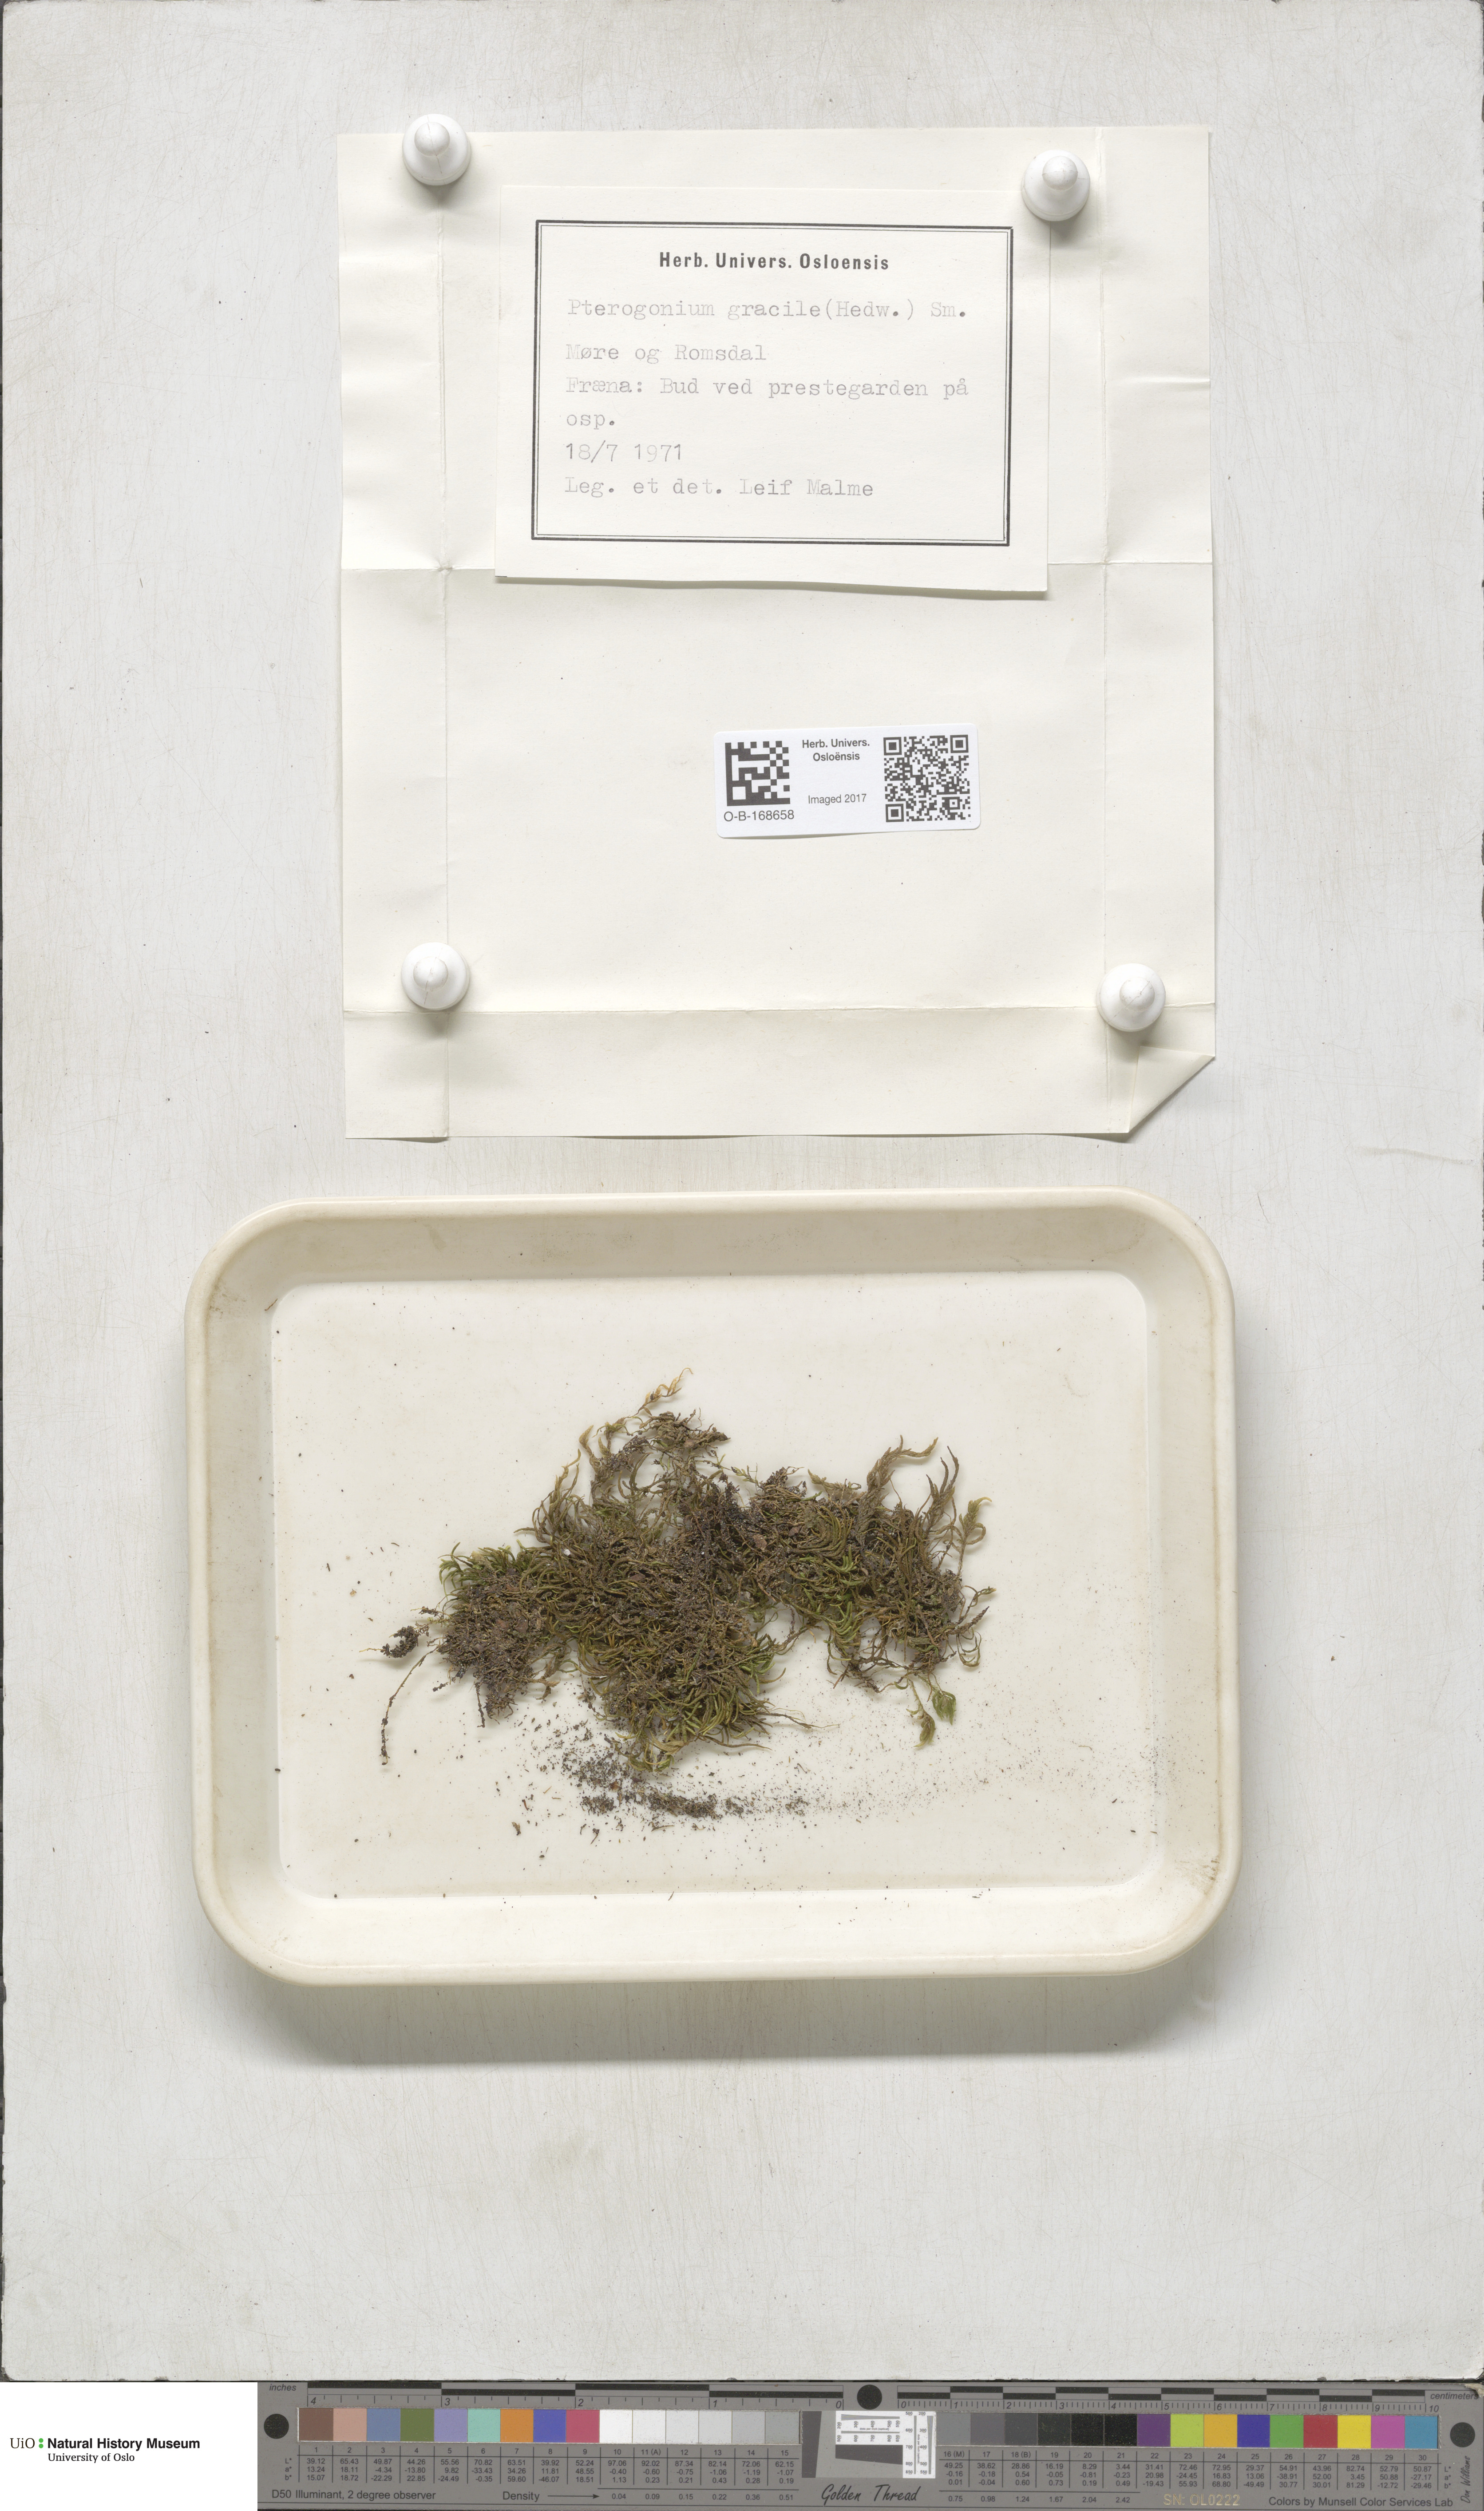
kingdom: Plantae
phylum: Bryophyta
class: Bryopsida
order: Hypnales
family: Lembophyllaceae
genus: Nogopterium
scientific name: Nogopterium gracile
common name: Bird's-foot wing-moss
